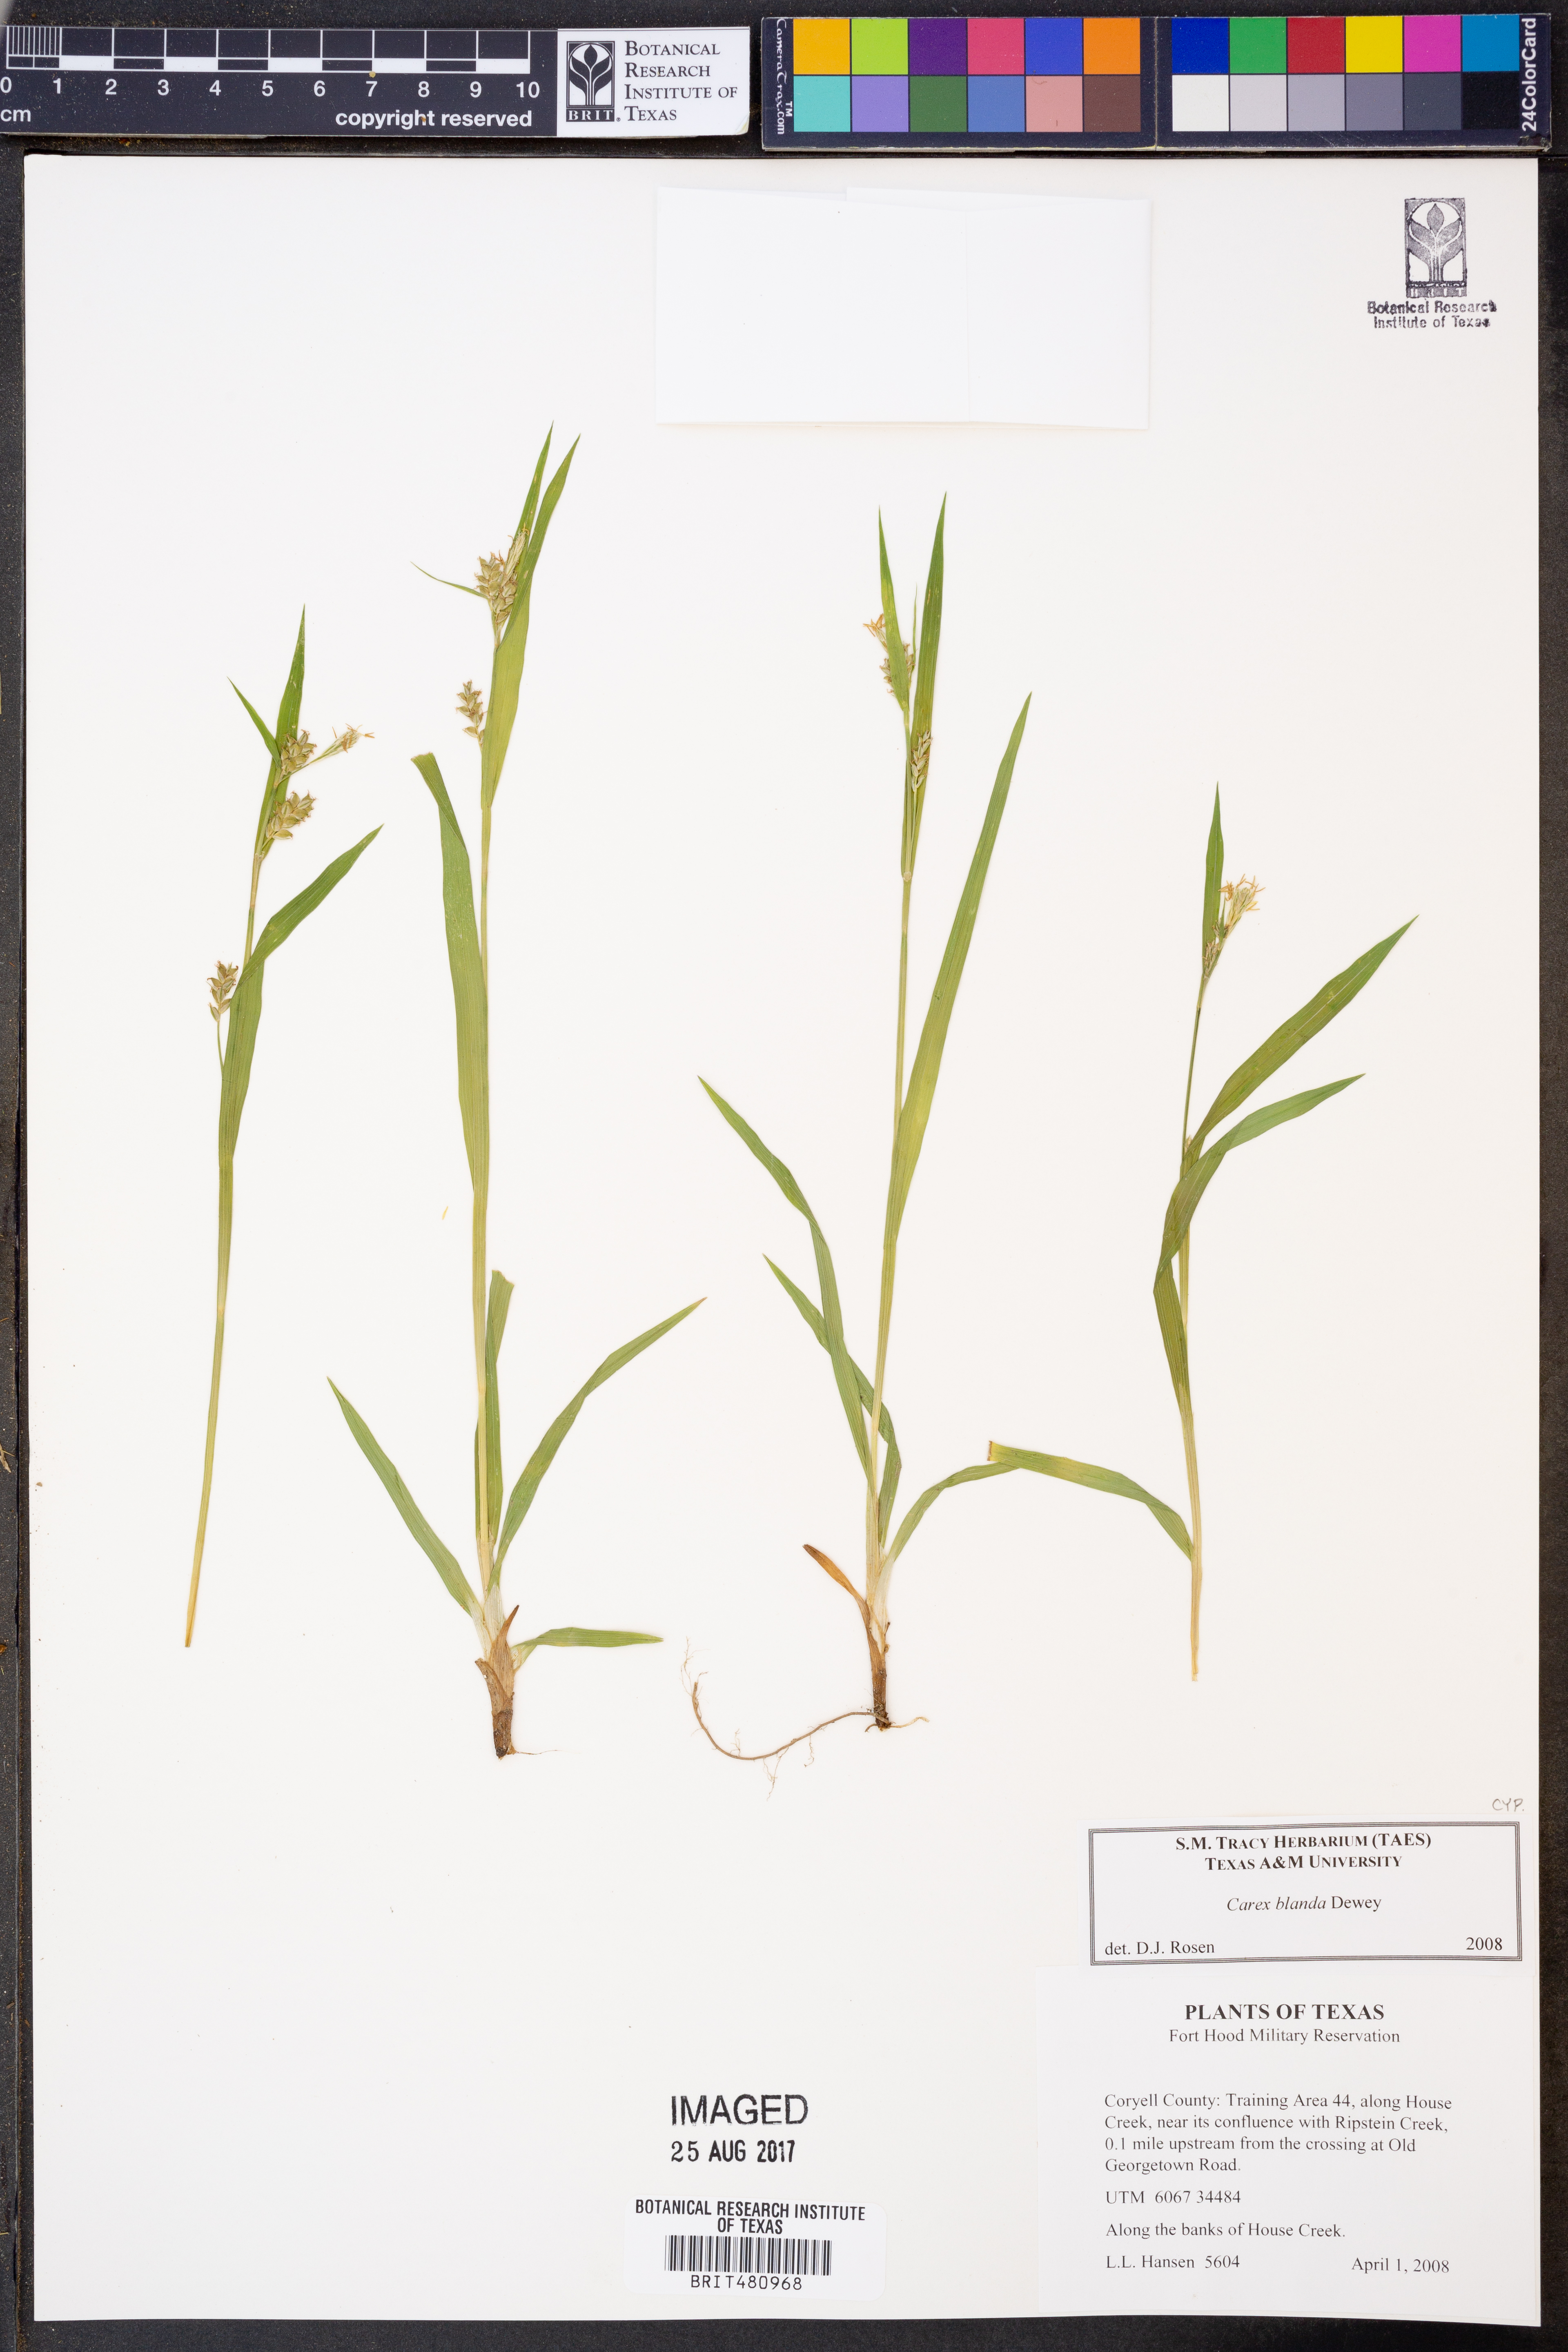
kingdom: Plantae
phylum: Tracheophyta
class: Liliopsida
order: Poales
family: Cyperaceae
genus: Carex
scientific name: Carex blanda
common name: Bland sedge
